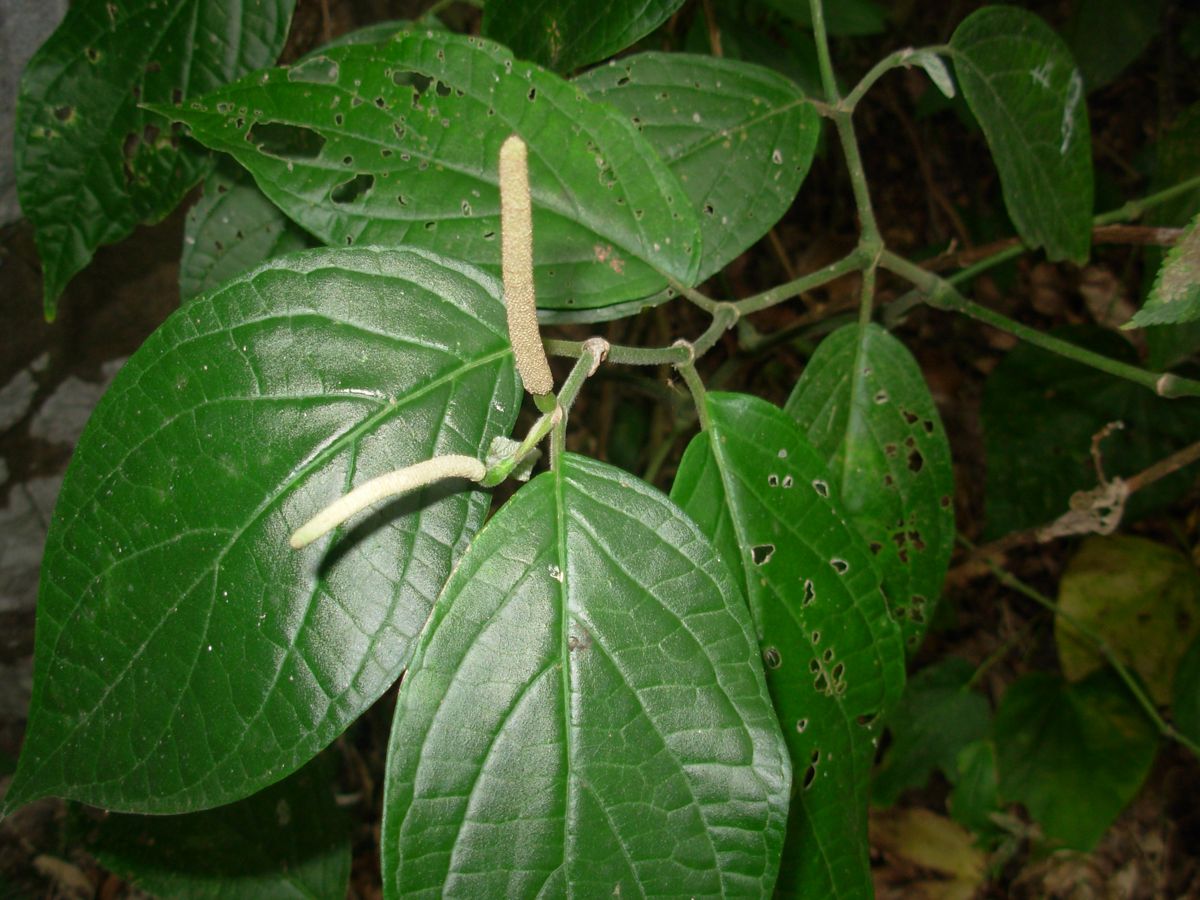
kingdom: Plantae
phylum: Tracheophyta
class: Magnoliopsida
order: Piperales
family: Piperaceae
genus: Piper
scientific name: Piper hispidum
